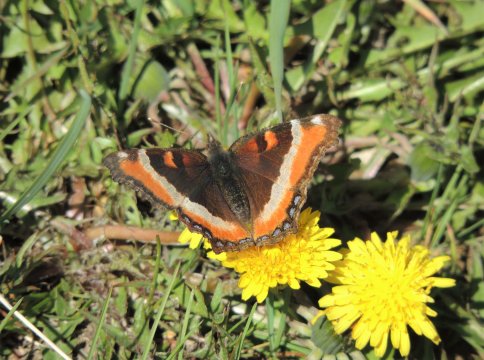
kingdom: Animalia
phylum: Arthropoda
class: Insecta
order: Lepidoptera
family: Nymphalidae
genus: Aglais
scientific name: Aglais milberti
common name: Milbert's Tortoiseshell
